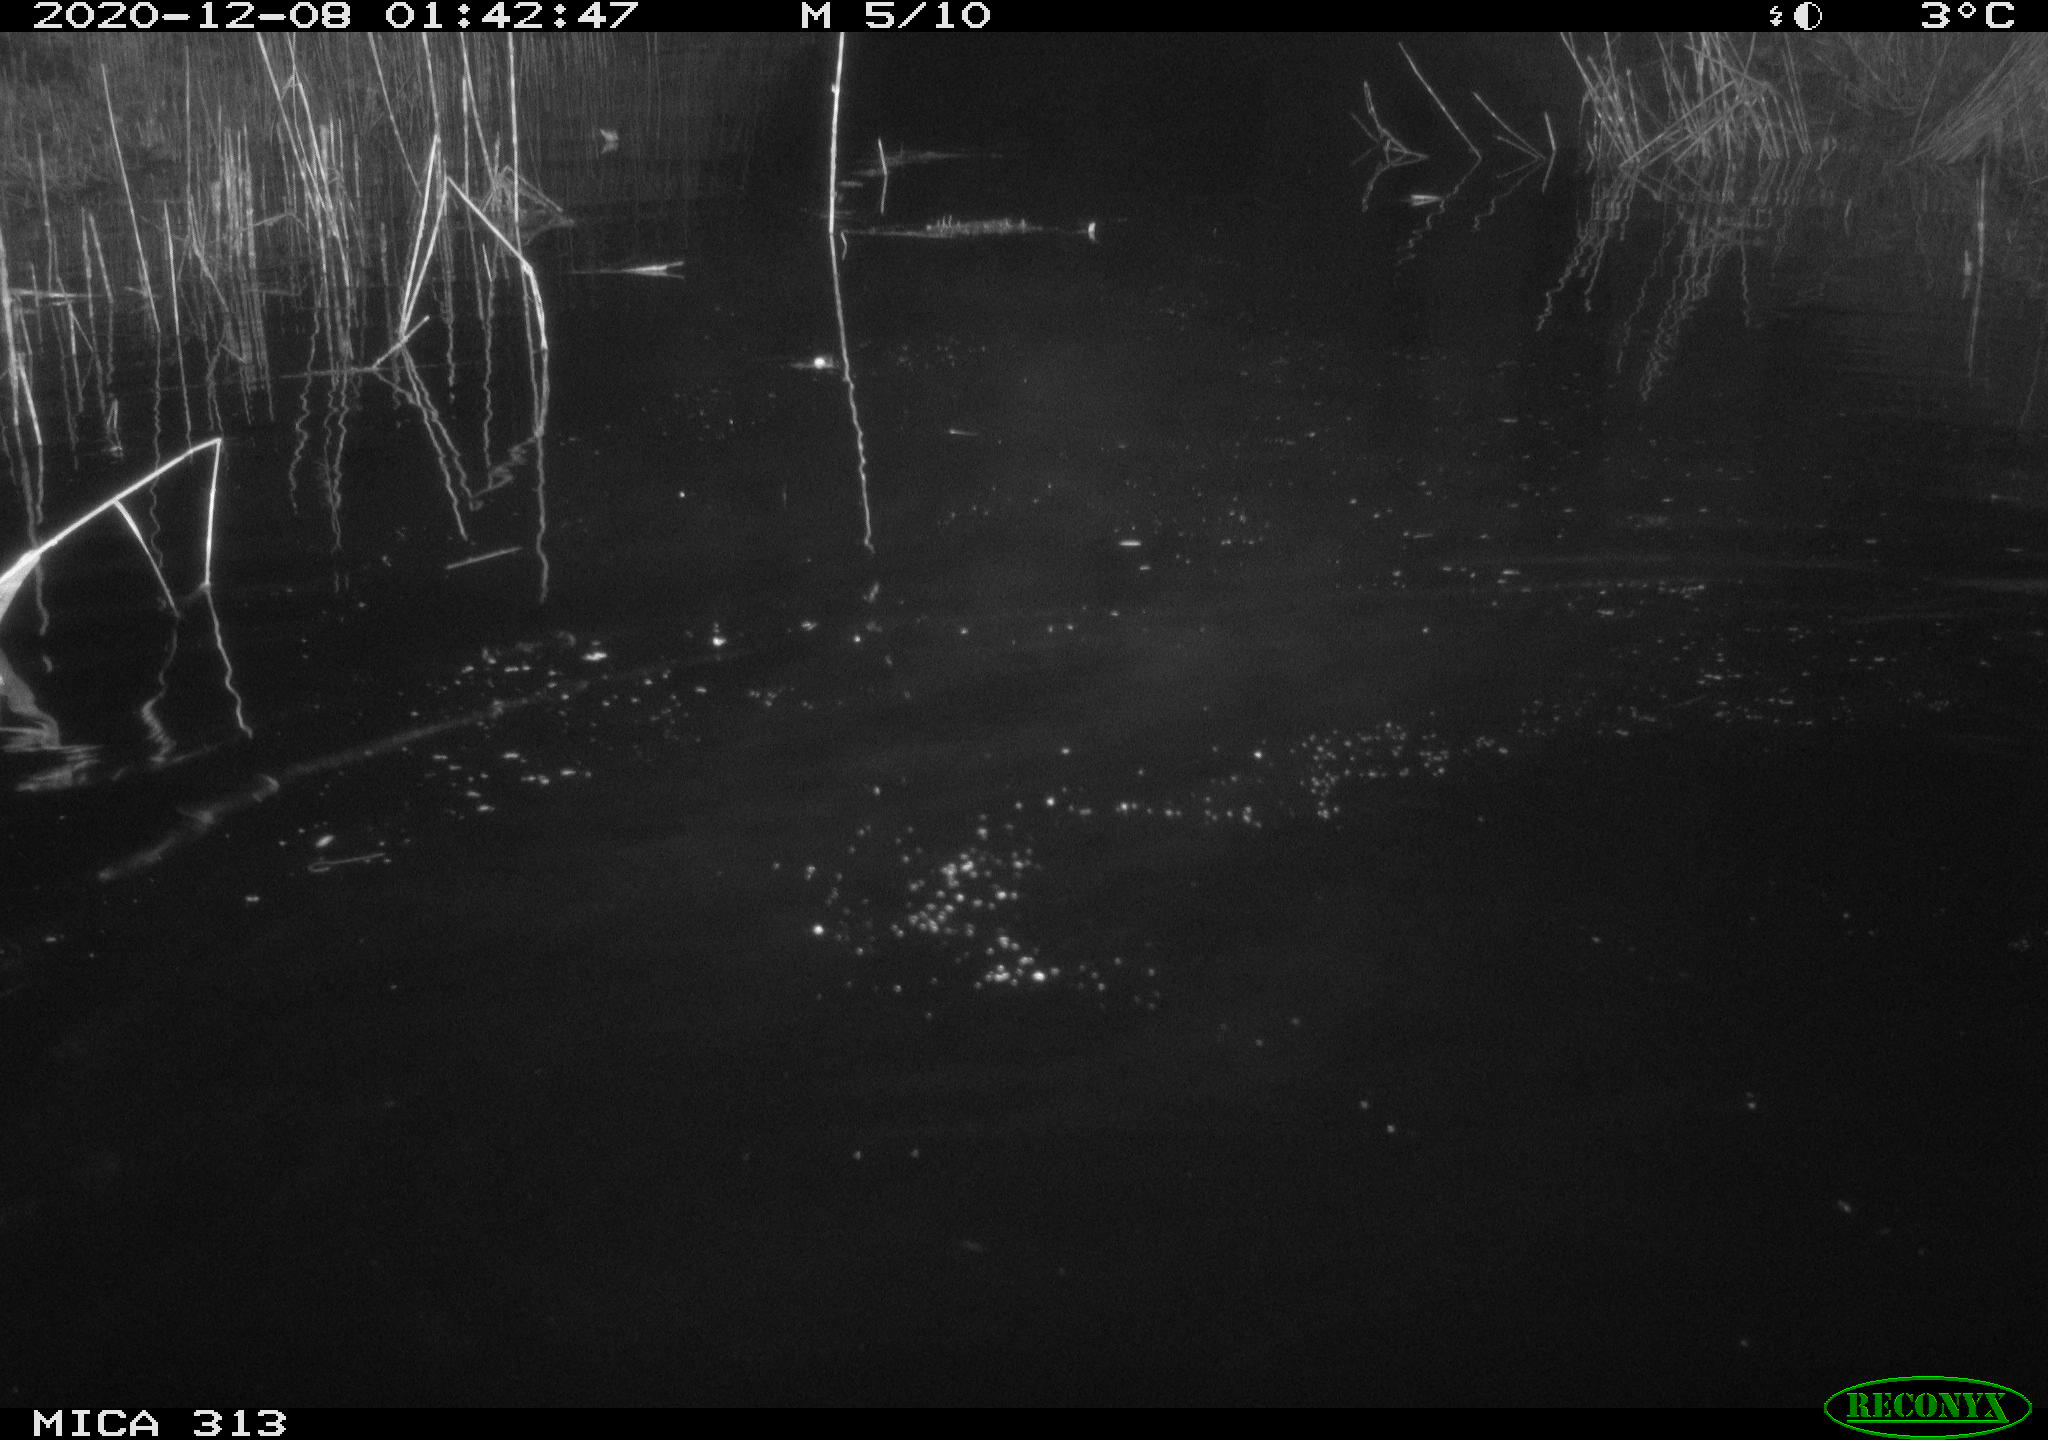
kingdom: Animalia
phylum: Chordata
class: Mammalia
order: Rodentia
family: Cricetidae
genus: Ondatra
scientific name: Ondatra zibethicus
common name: Muskrat
